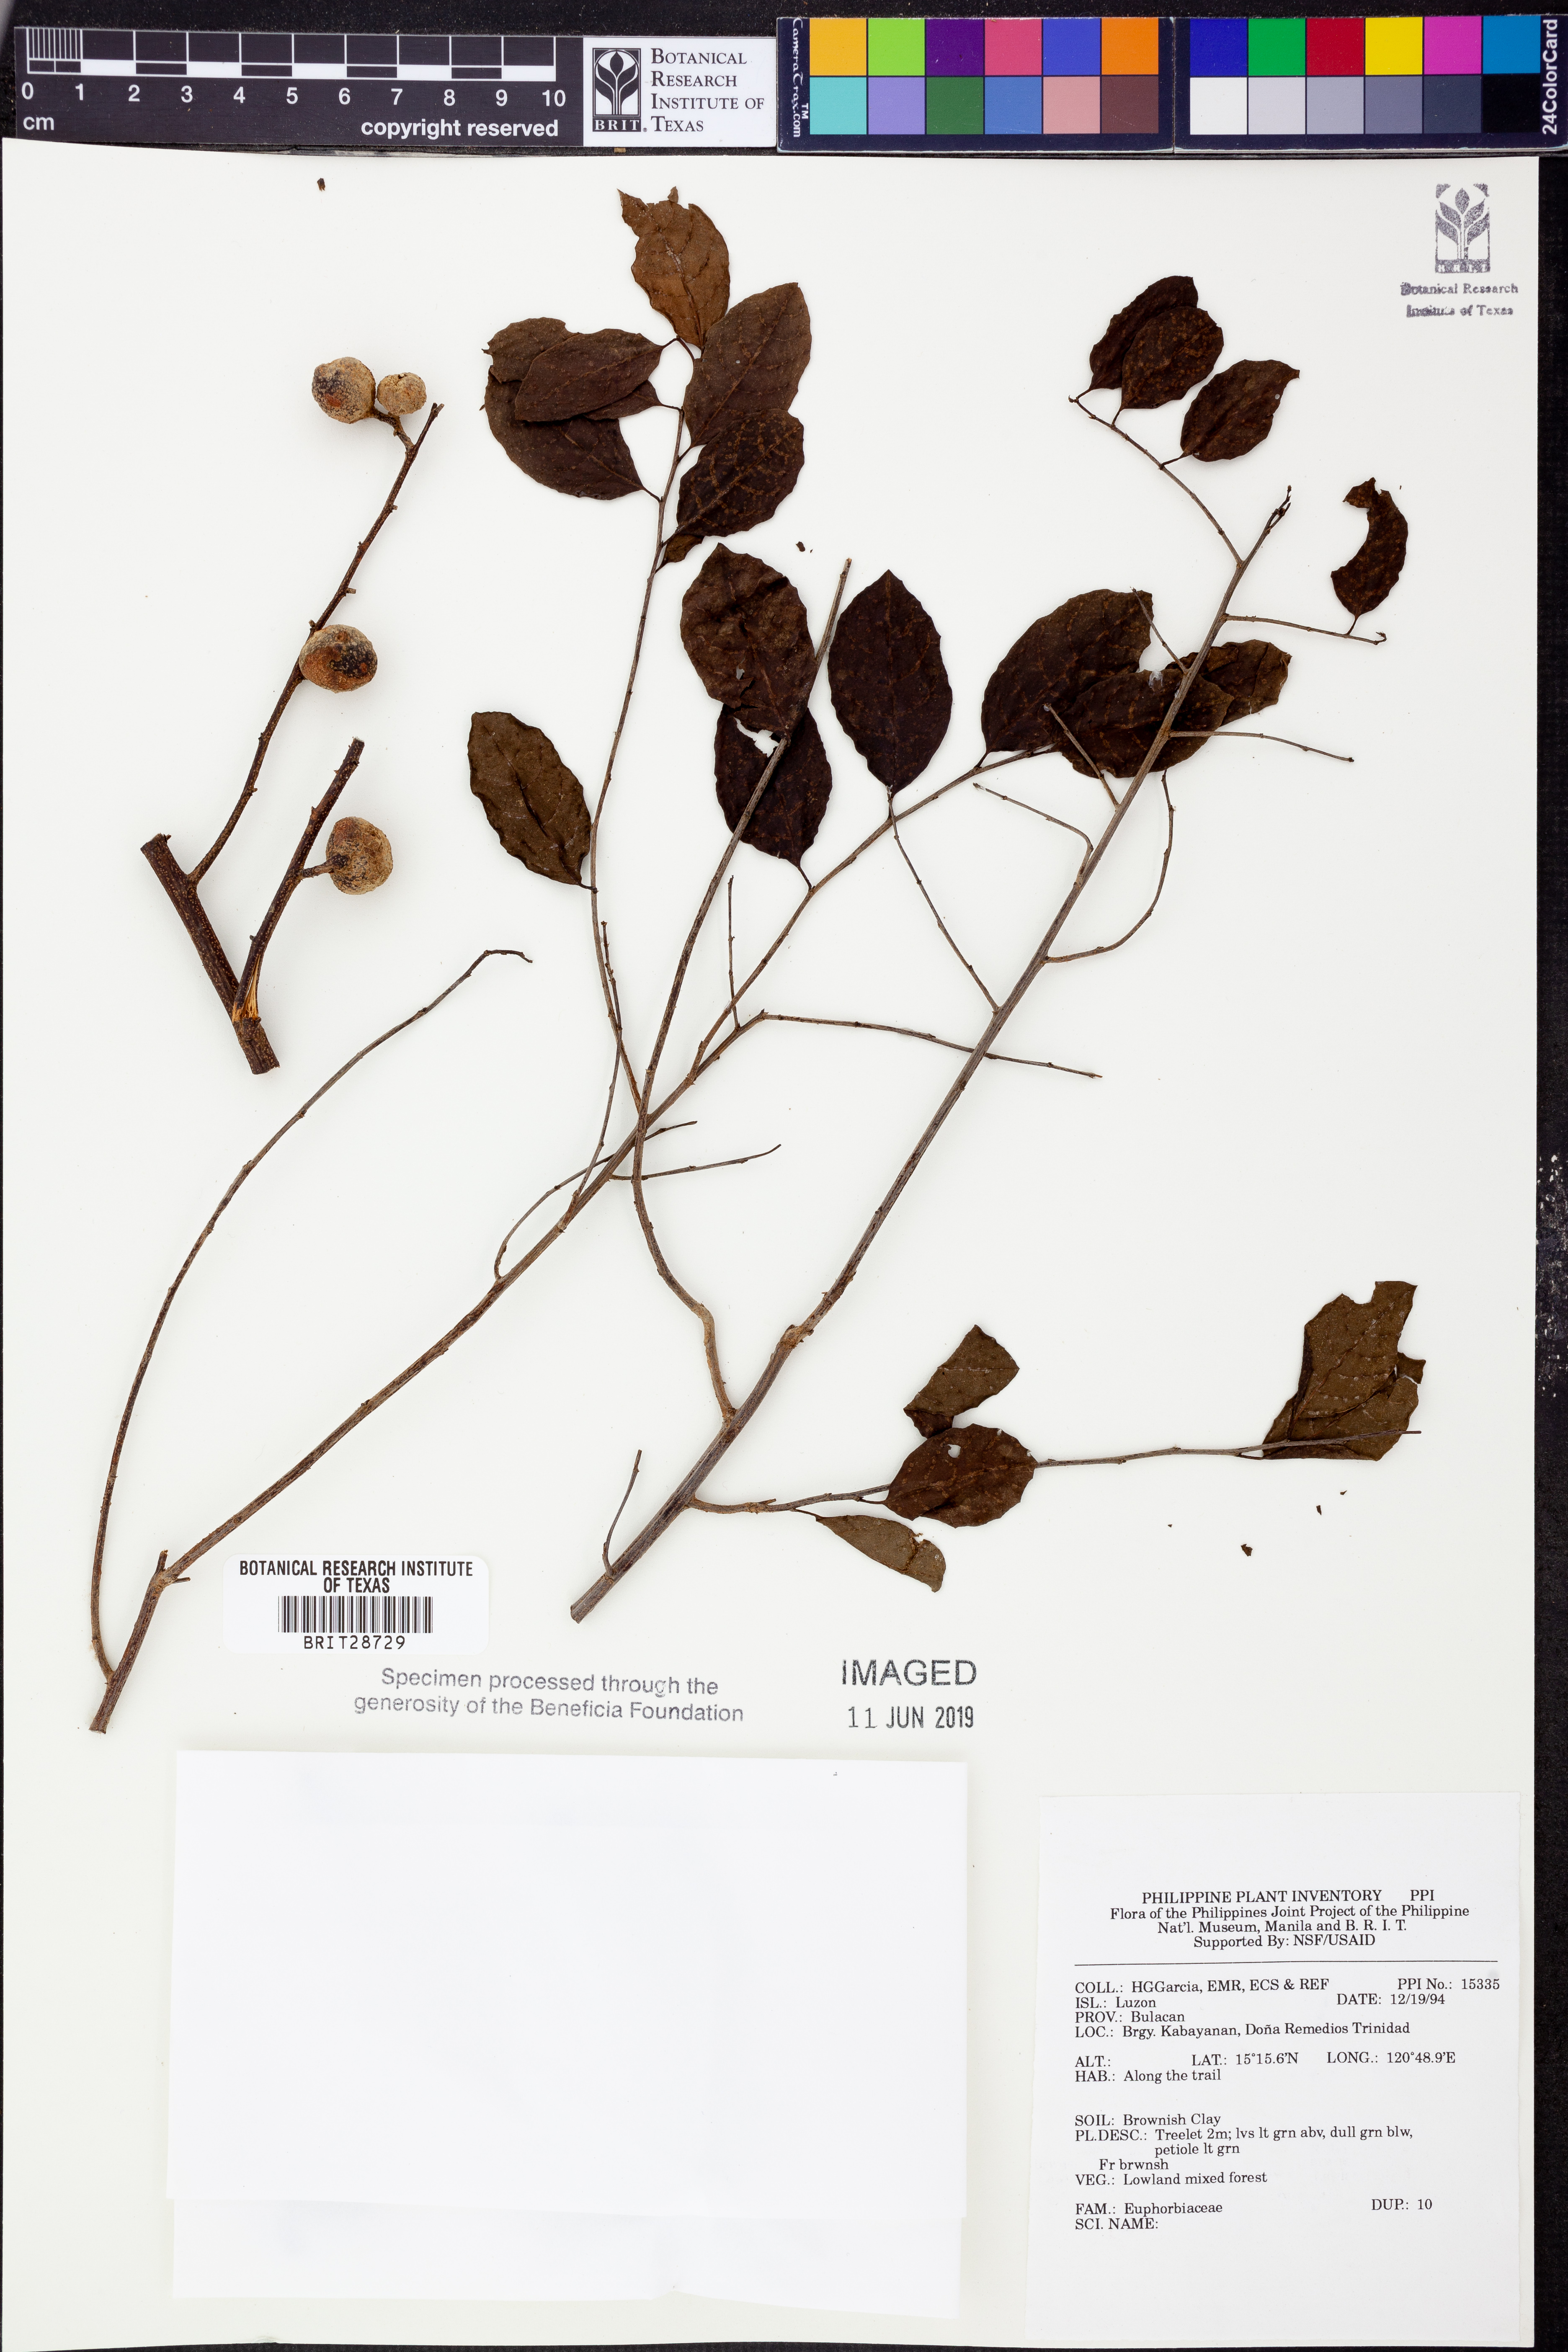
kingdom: Plantae
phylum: Tracheophyta
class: Magnoliopsida
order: Malpighiales
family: Euphorbiaceae
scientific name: Euphorbiaceae
